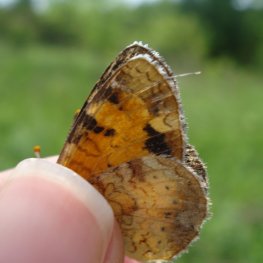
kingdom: Animalia
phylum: Arthropoda
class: Insecta
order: Lepidoptera
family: Nymphalidae
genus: Phyciodes
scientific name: Phyciodes tharos
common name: Northern Crescent
